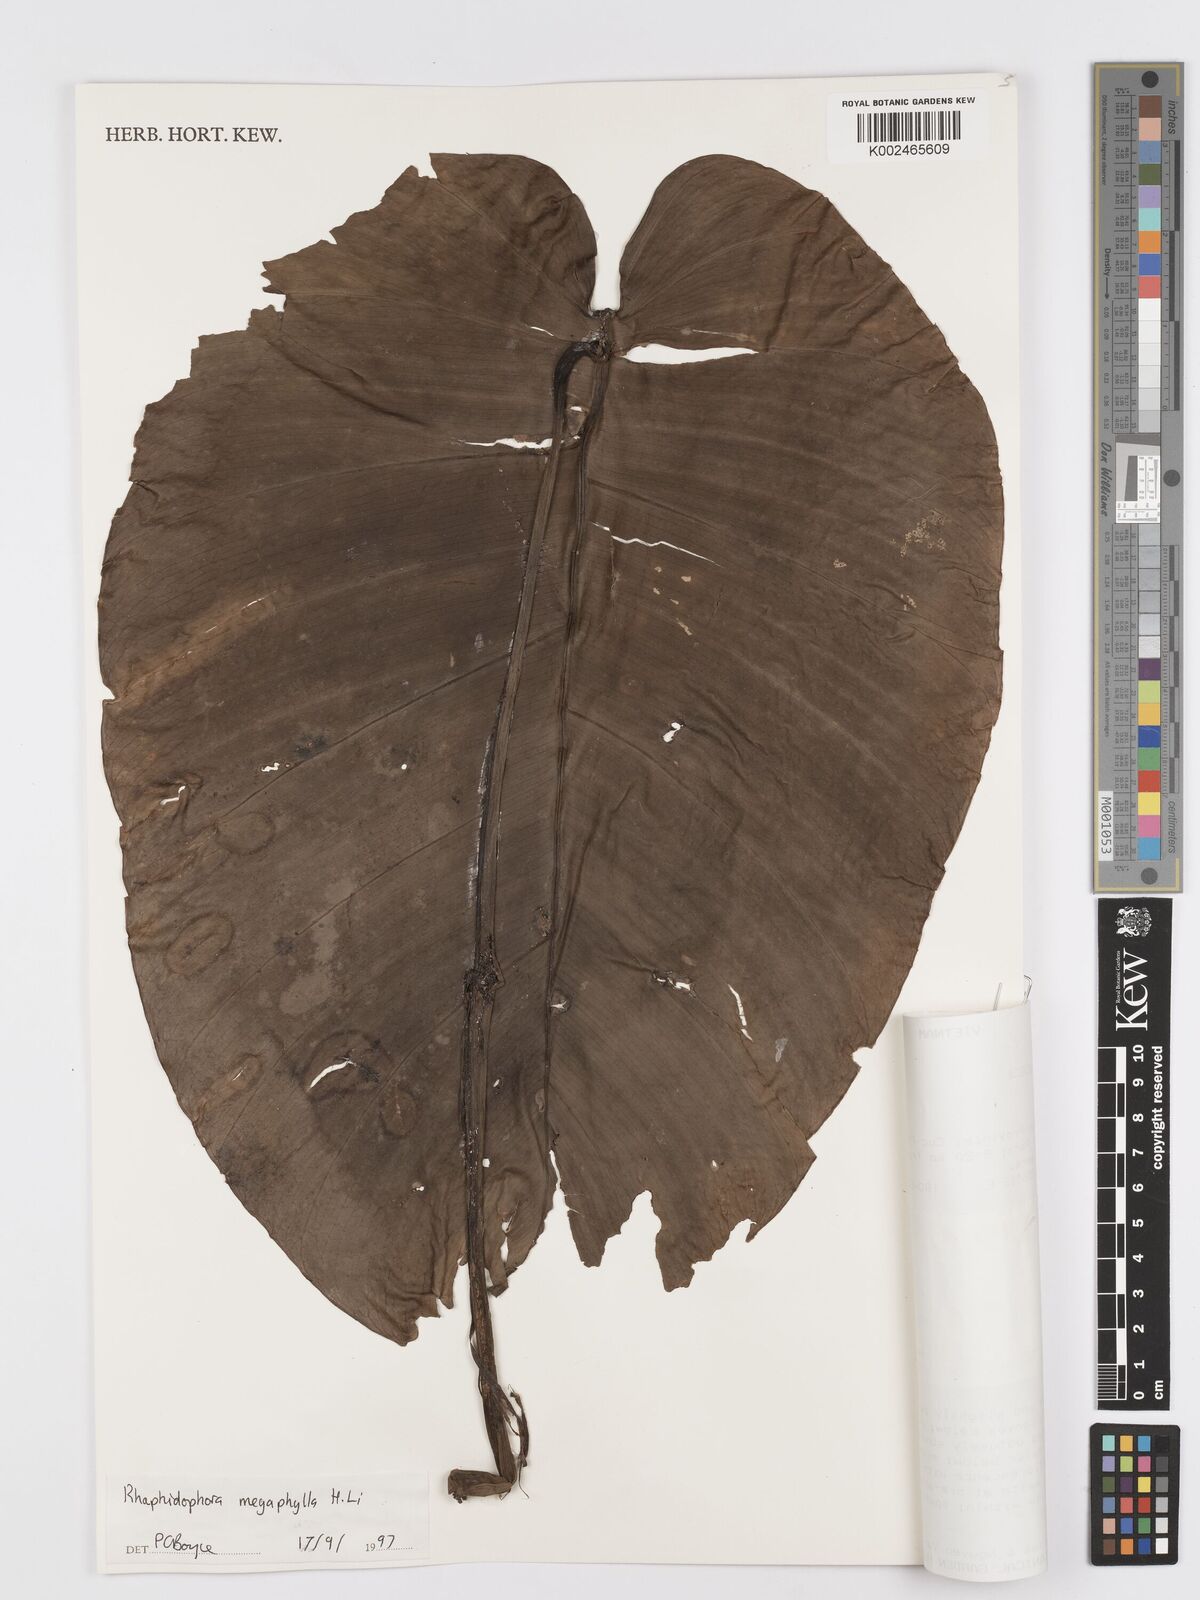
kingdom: Plantae
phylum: Tracheophyta
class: Liliopsida
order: Alismatales
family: Araceae
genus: Rhaphidophora
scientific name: Rhaphidophora megaphylla
